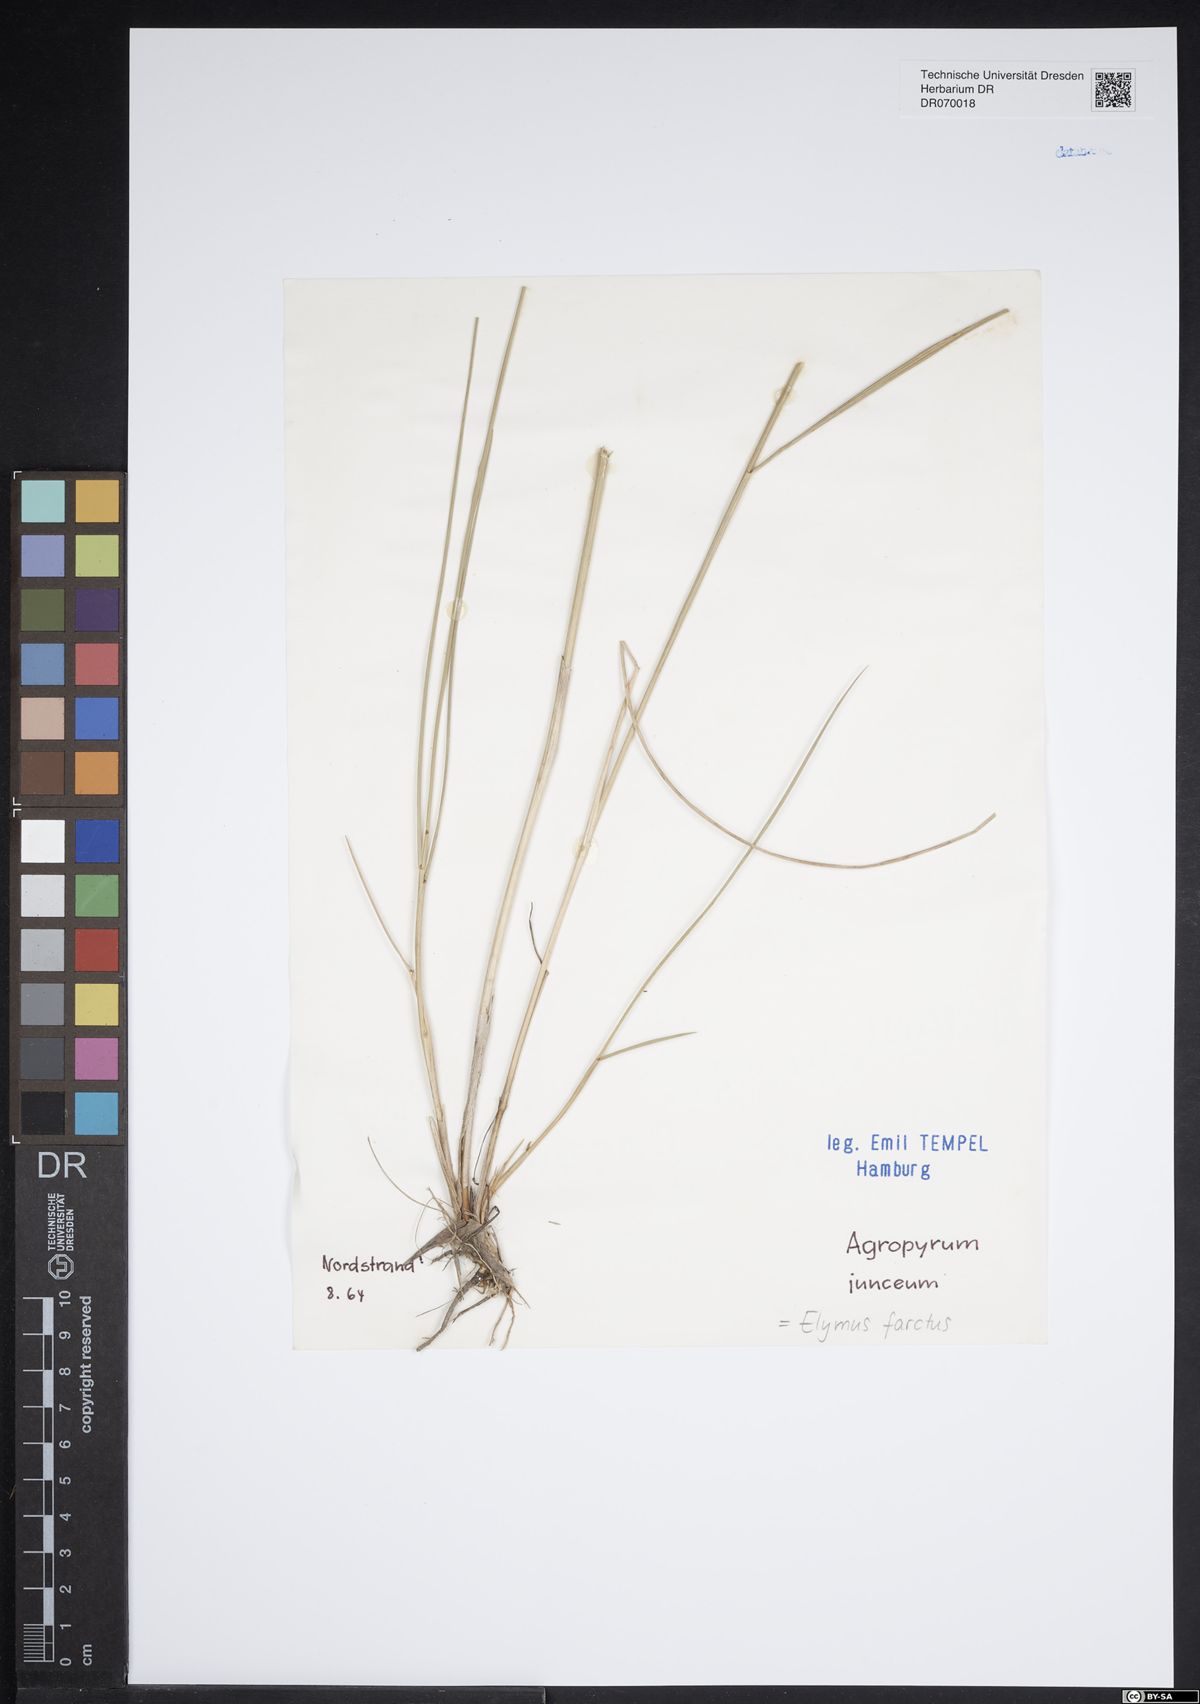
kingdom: Plantae
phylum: Tracheophyta
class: Liliopsida
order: Poales
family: Poaceae
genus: Thinopyrum
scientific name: Thinopyrum junceum
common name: Russian wheatgrass
